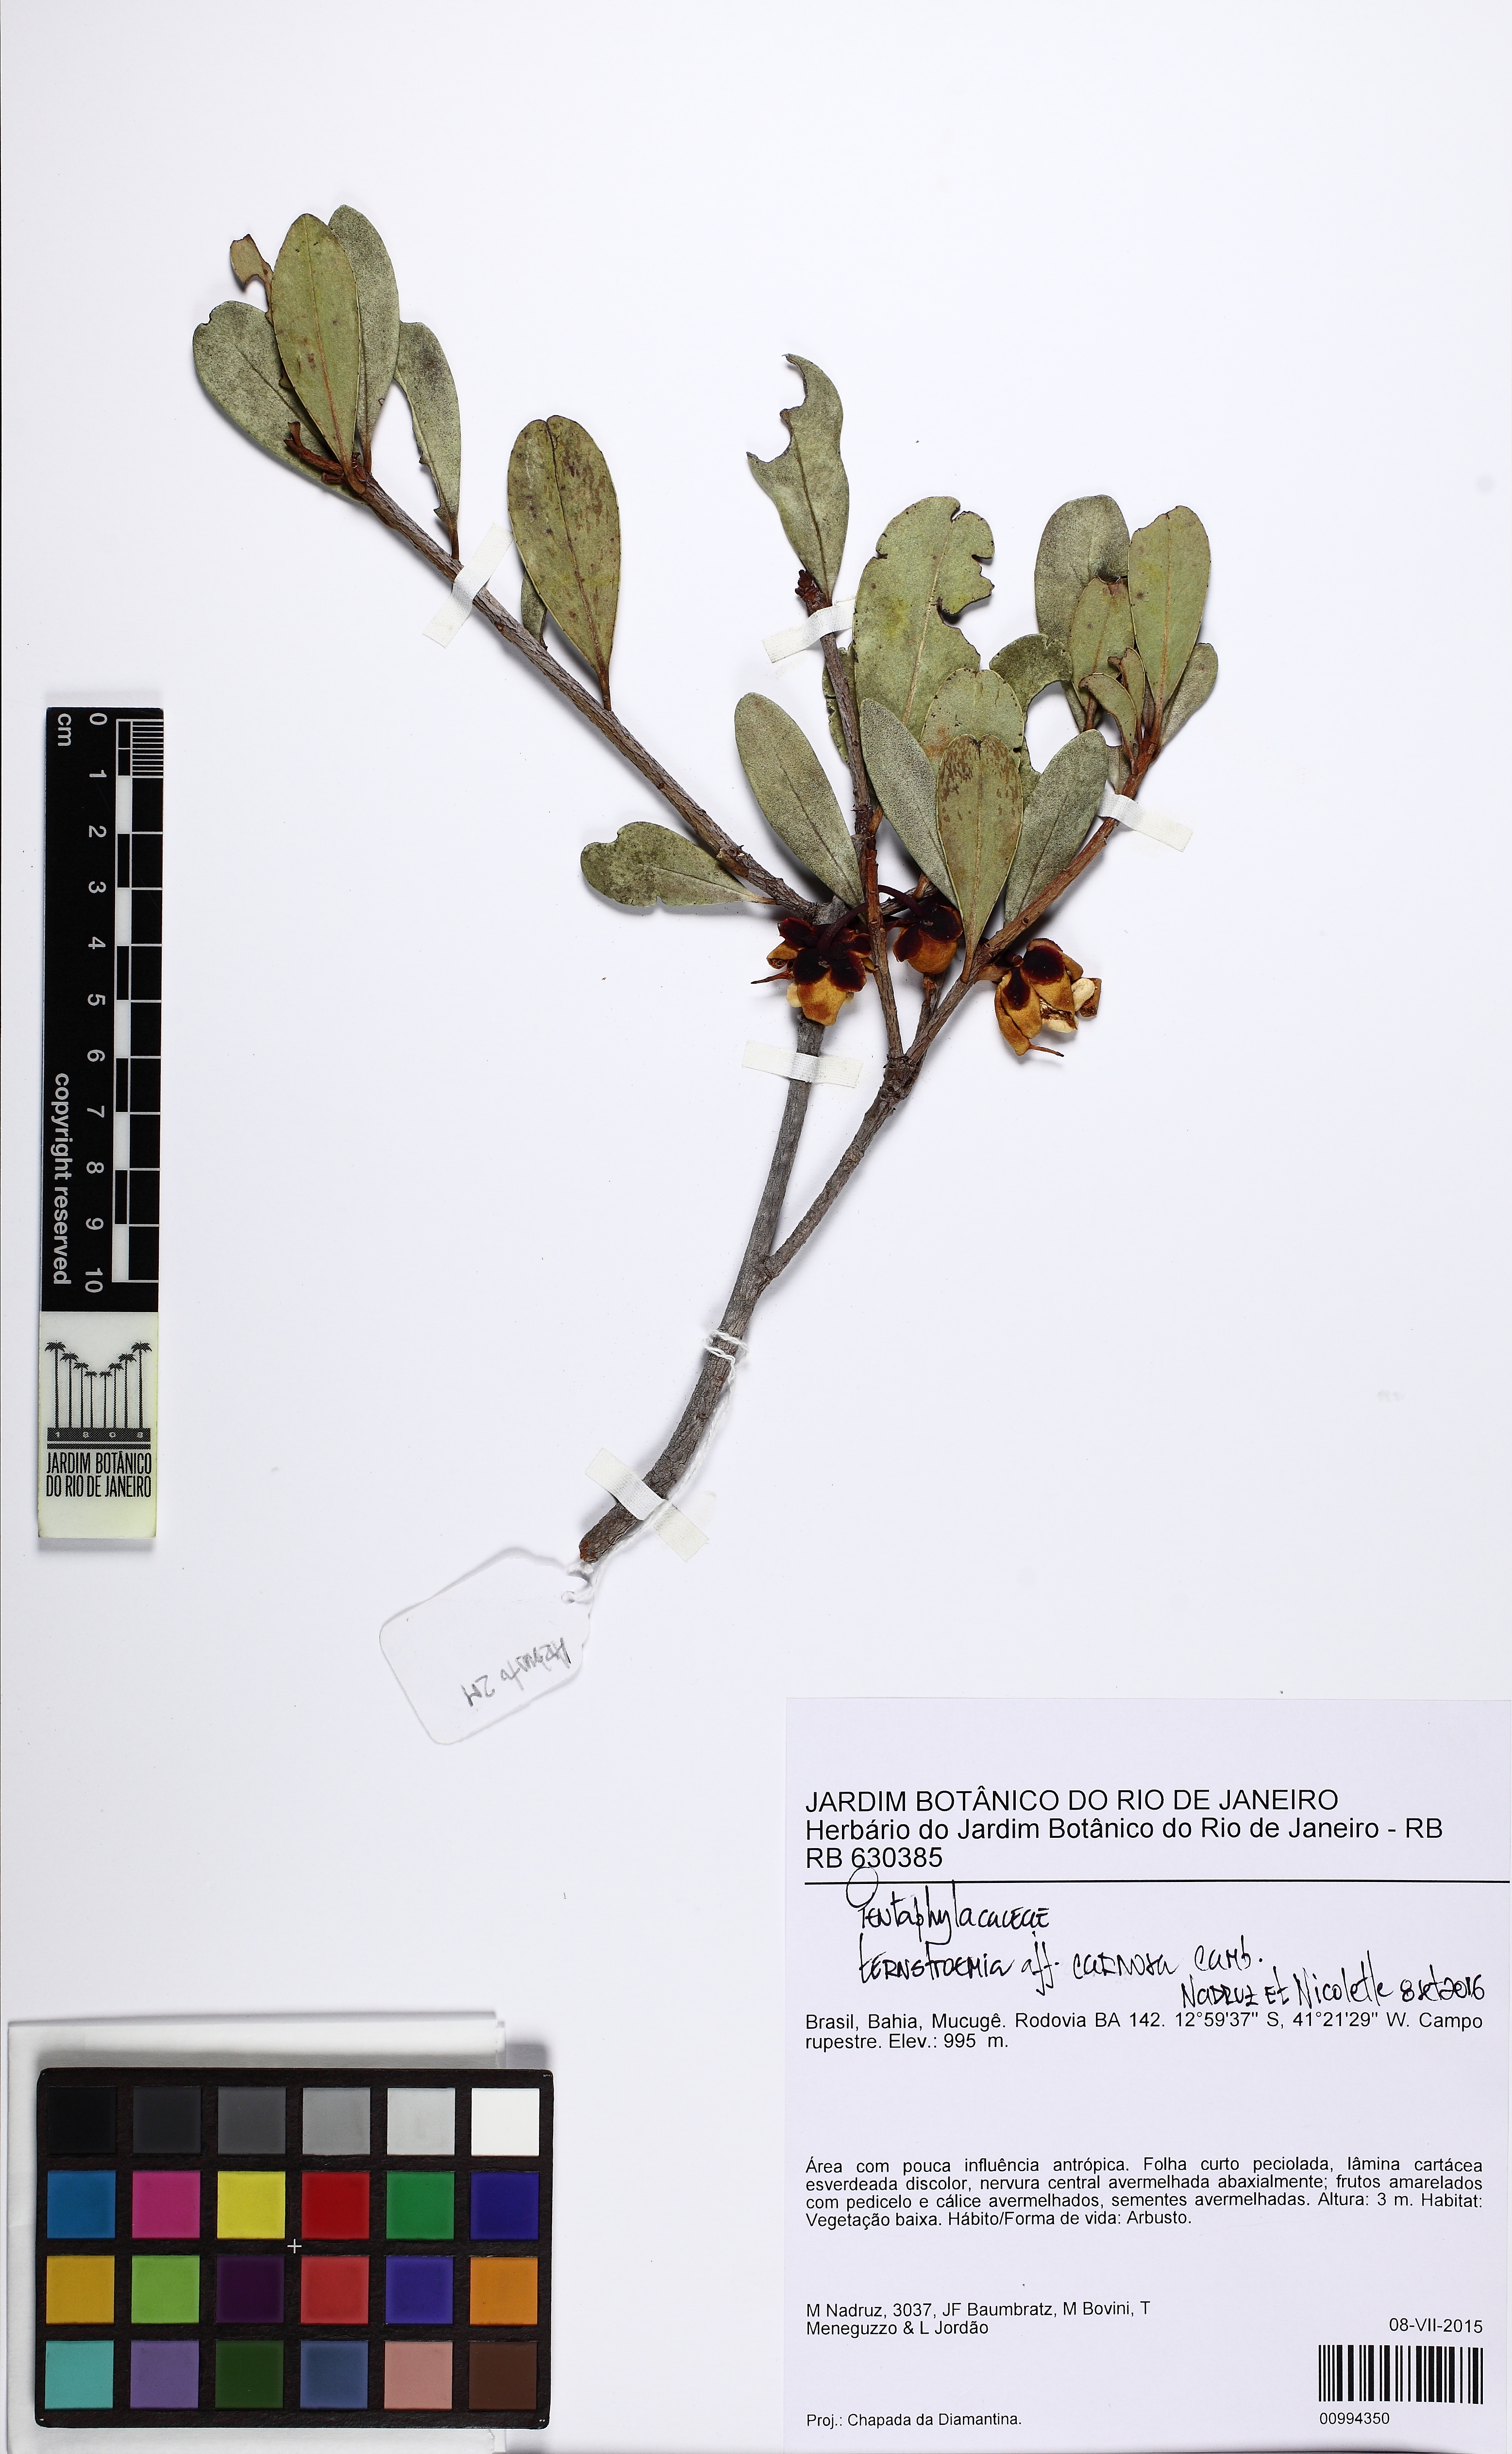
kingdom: Plantae
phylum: Tracheophyta
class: Magnoliopsida
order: Ericales
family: Pentaphylacaceae
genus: Ternstroemia
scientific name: Ternstroemia carnosa
